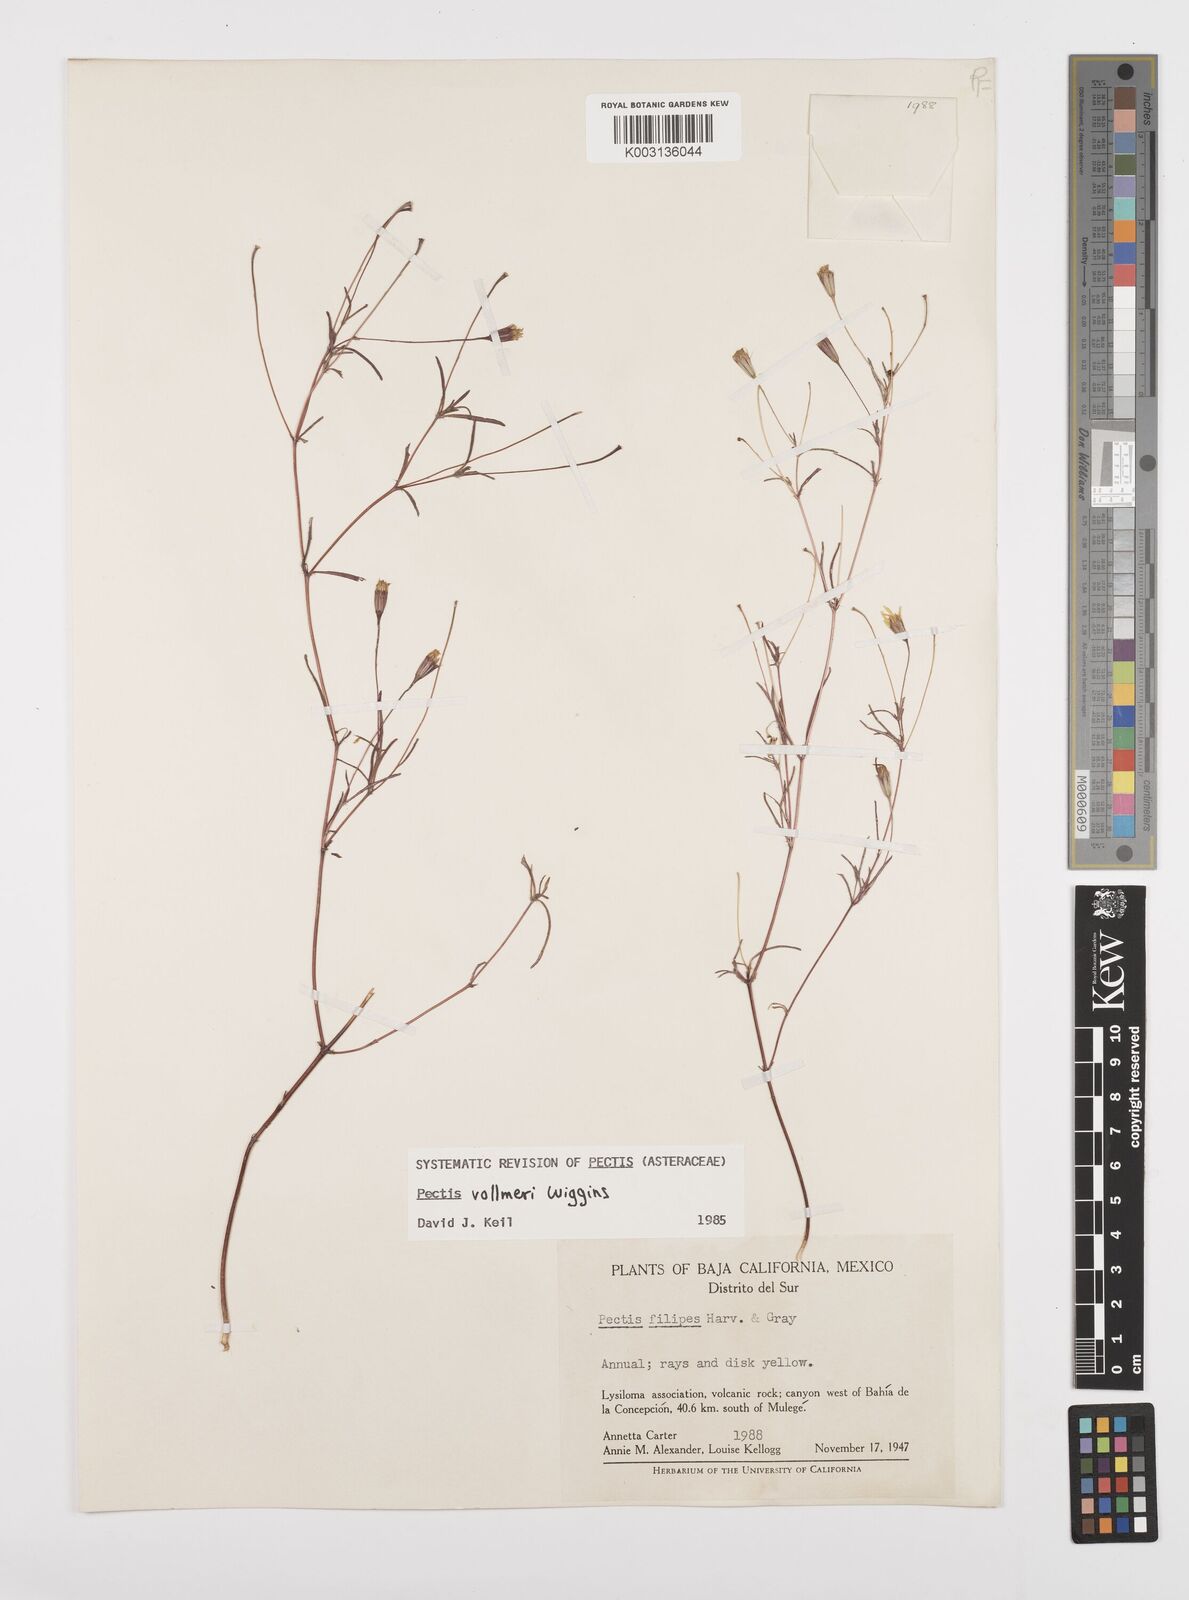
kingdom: Plantae
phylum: Tracheophyta
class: Magnoliopsida
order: Asterales
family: Asteraceae
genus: Pectis
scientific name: Pectis filipes
